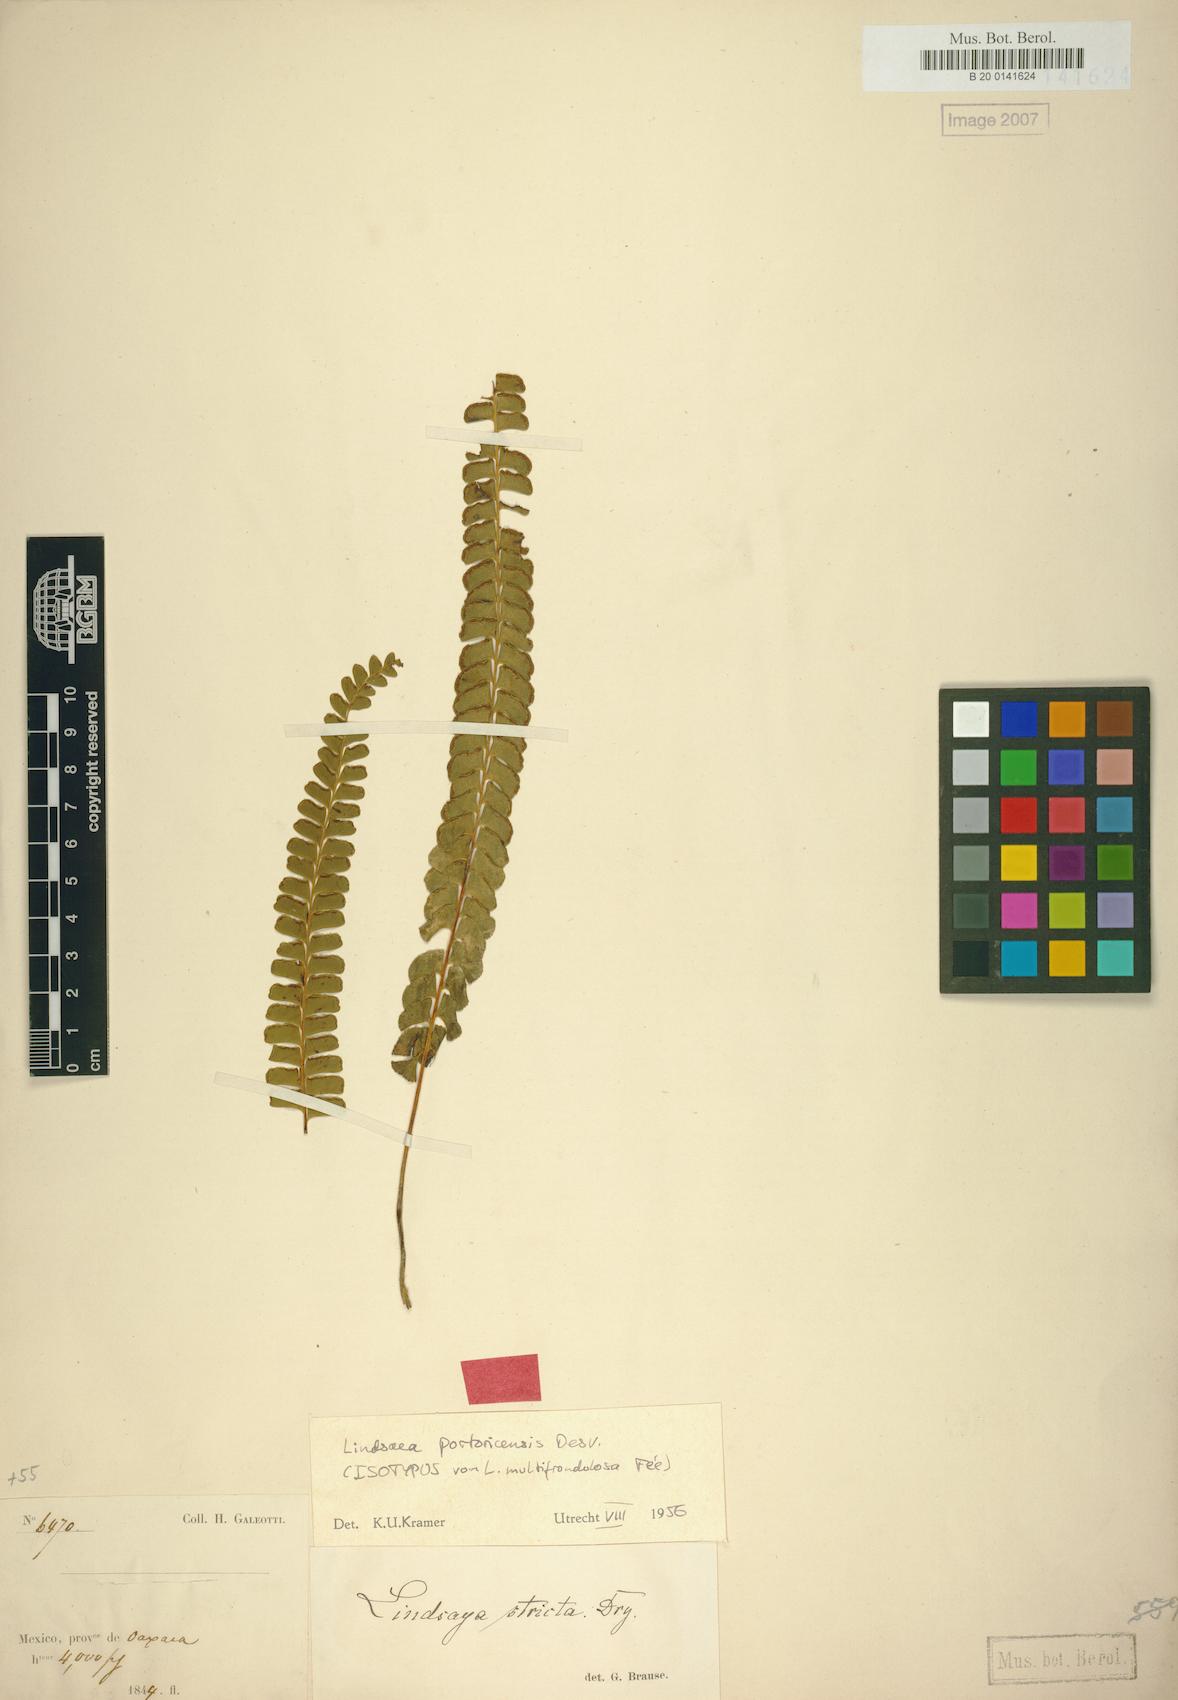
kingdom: Plantae
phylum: Tracheophyta
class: Polypodiopsida
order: Polypodiales
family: Lindsaeaceae
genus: Lindsaea
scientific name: Lindsaea portoricensis
